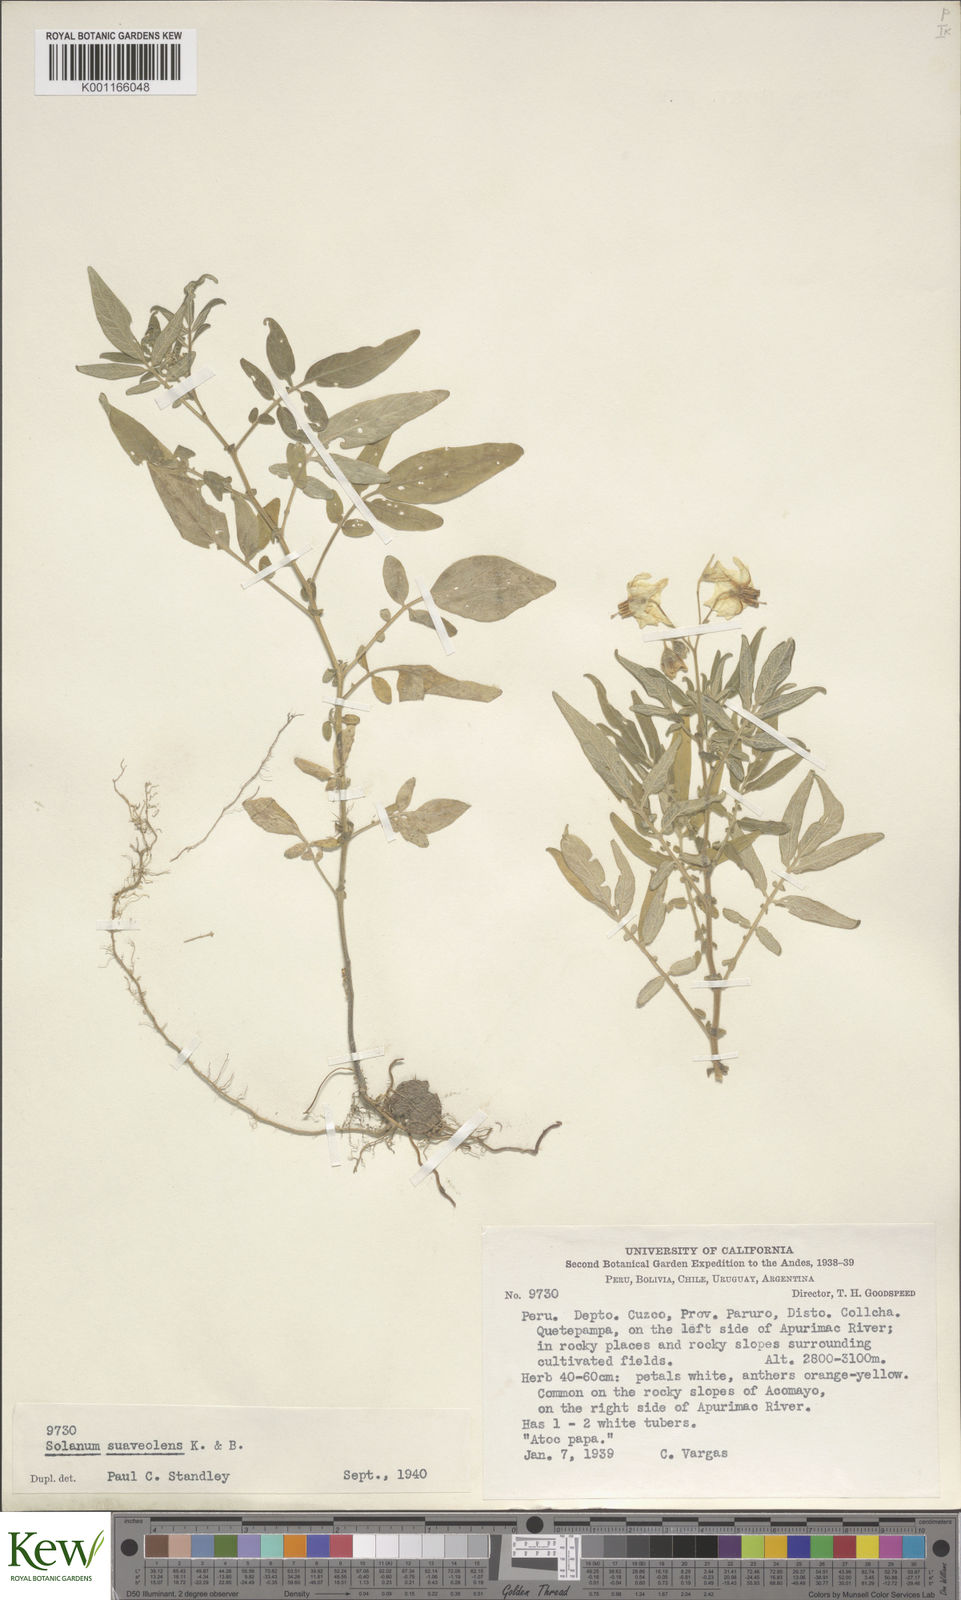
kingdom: Plantae
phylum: Tracheophyta
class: Magnoliopsida
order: Solanales
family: Solanaceae
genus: Solanum
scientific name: Solanum suaveolens
